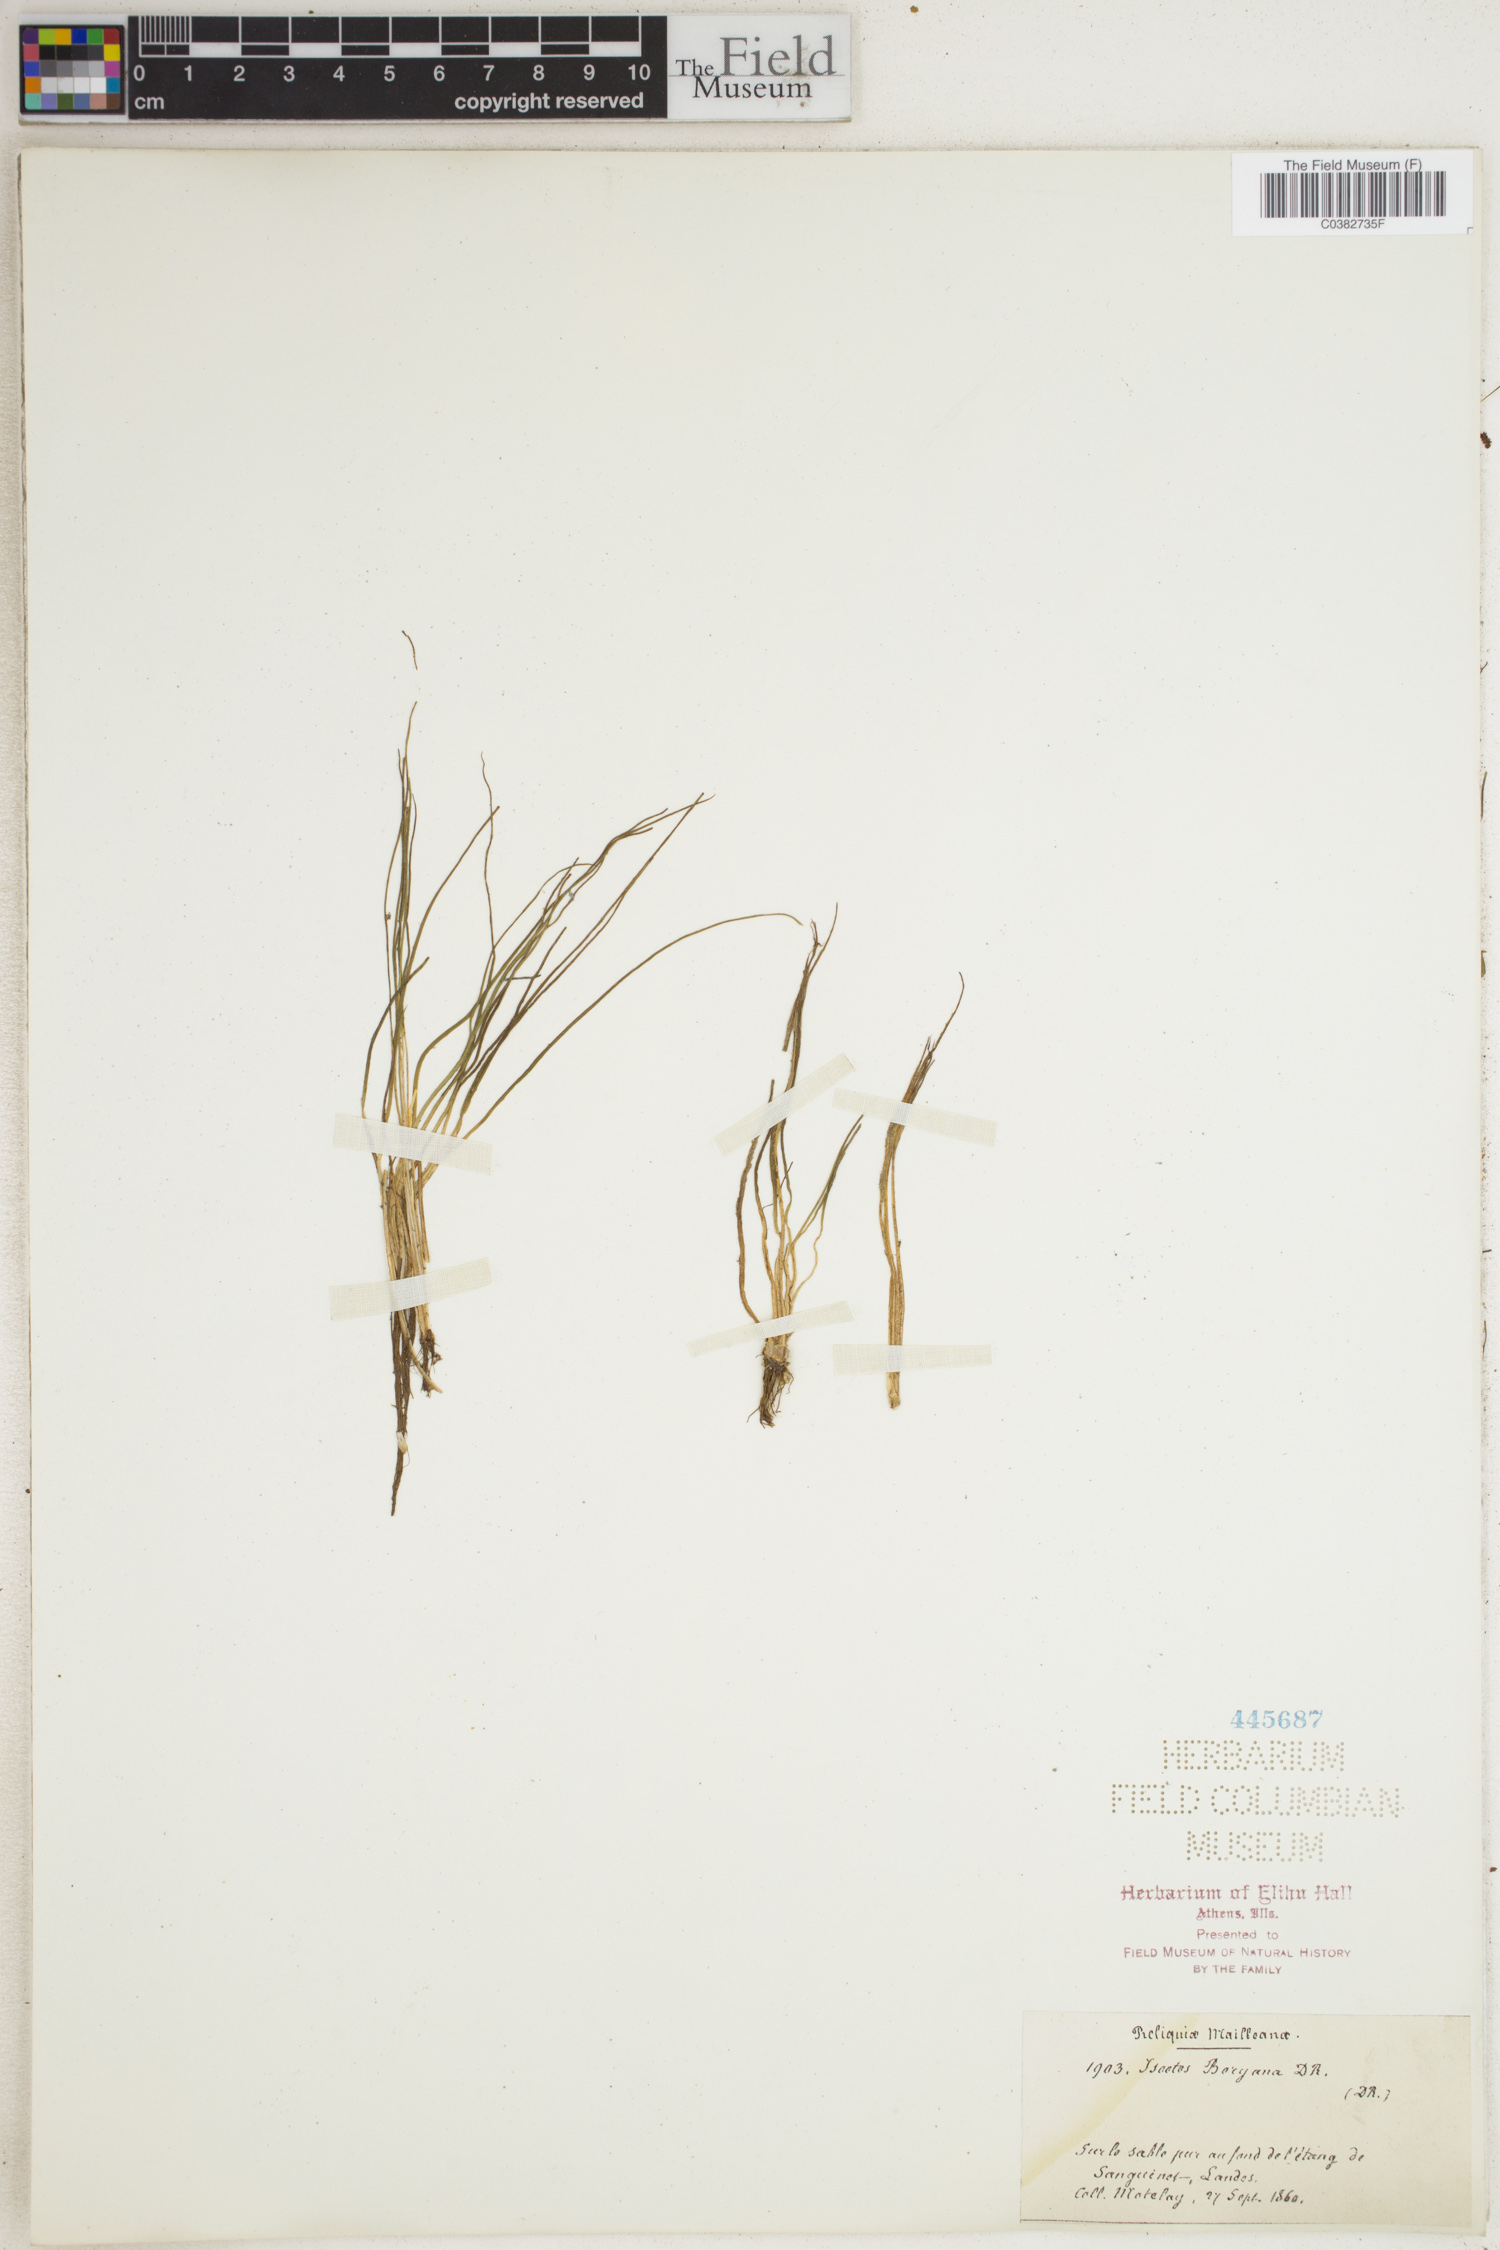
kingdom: Plantae
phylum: Tracheophyta
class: Lycopodiopsida
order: Isoetales
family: Isoetaceae
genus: Isoetes
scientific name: Isoetes boryana
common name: Gascoyne quillwort
